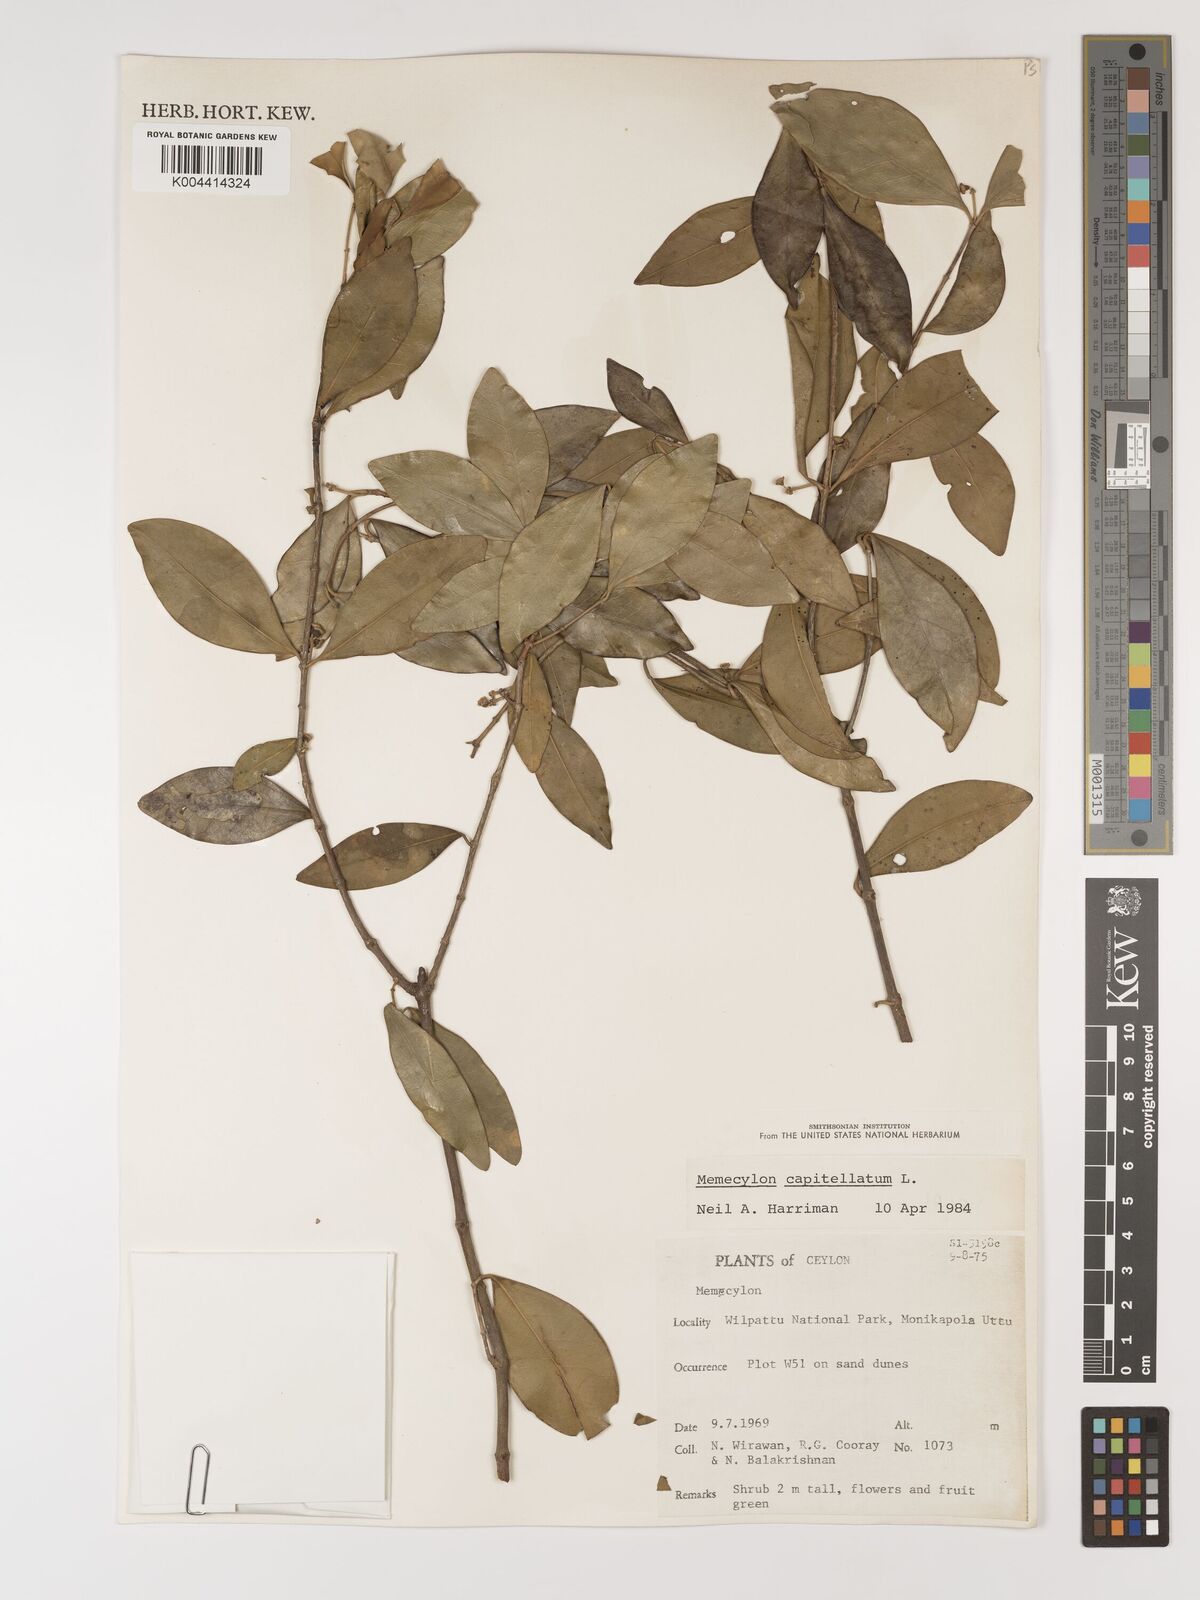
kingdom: Plantae
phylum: Tracheophyta
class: Magnoliopsida
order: Myrtales
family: Melastomataceae
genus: Memecylon
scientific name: Memecylon capitellatum
